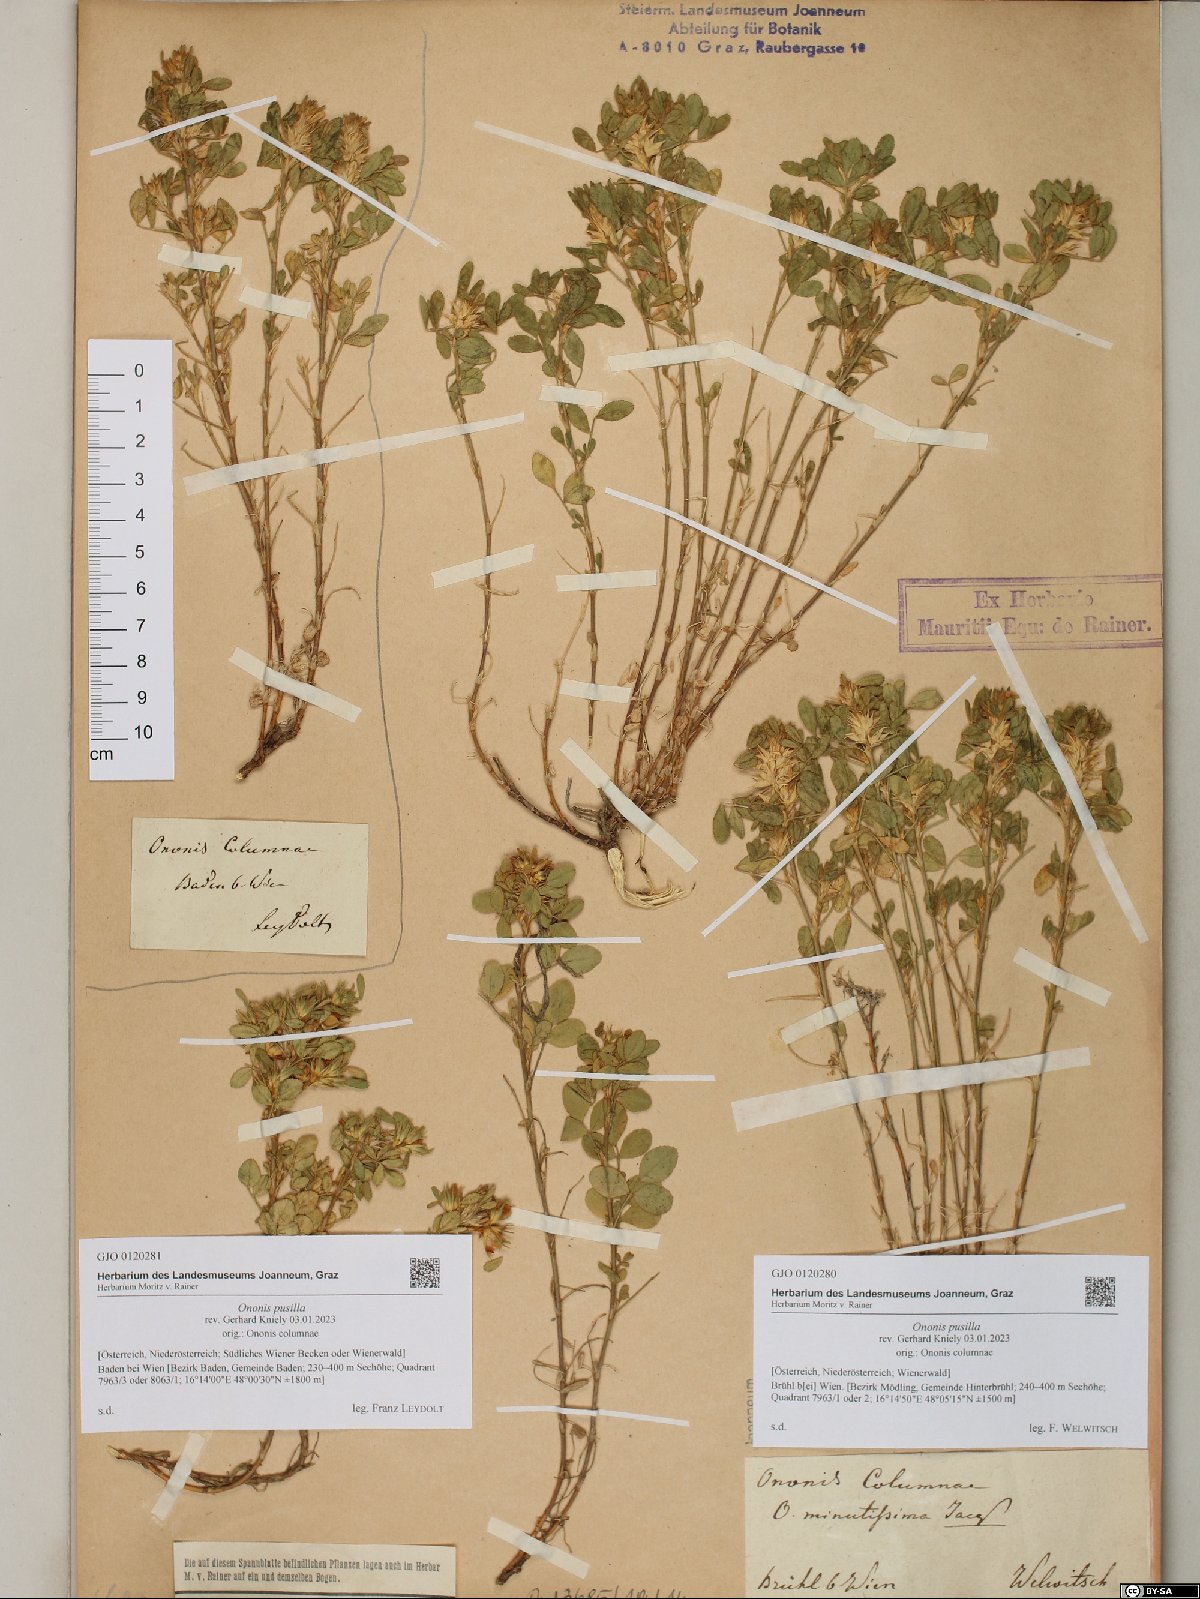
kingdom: Plantae
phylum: Tracheophyta
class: Magnoliopsida
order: Fabales
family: Fabaceae
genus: Ononis
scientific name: Ononis pusilla
